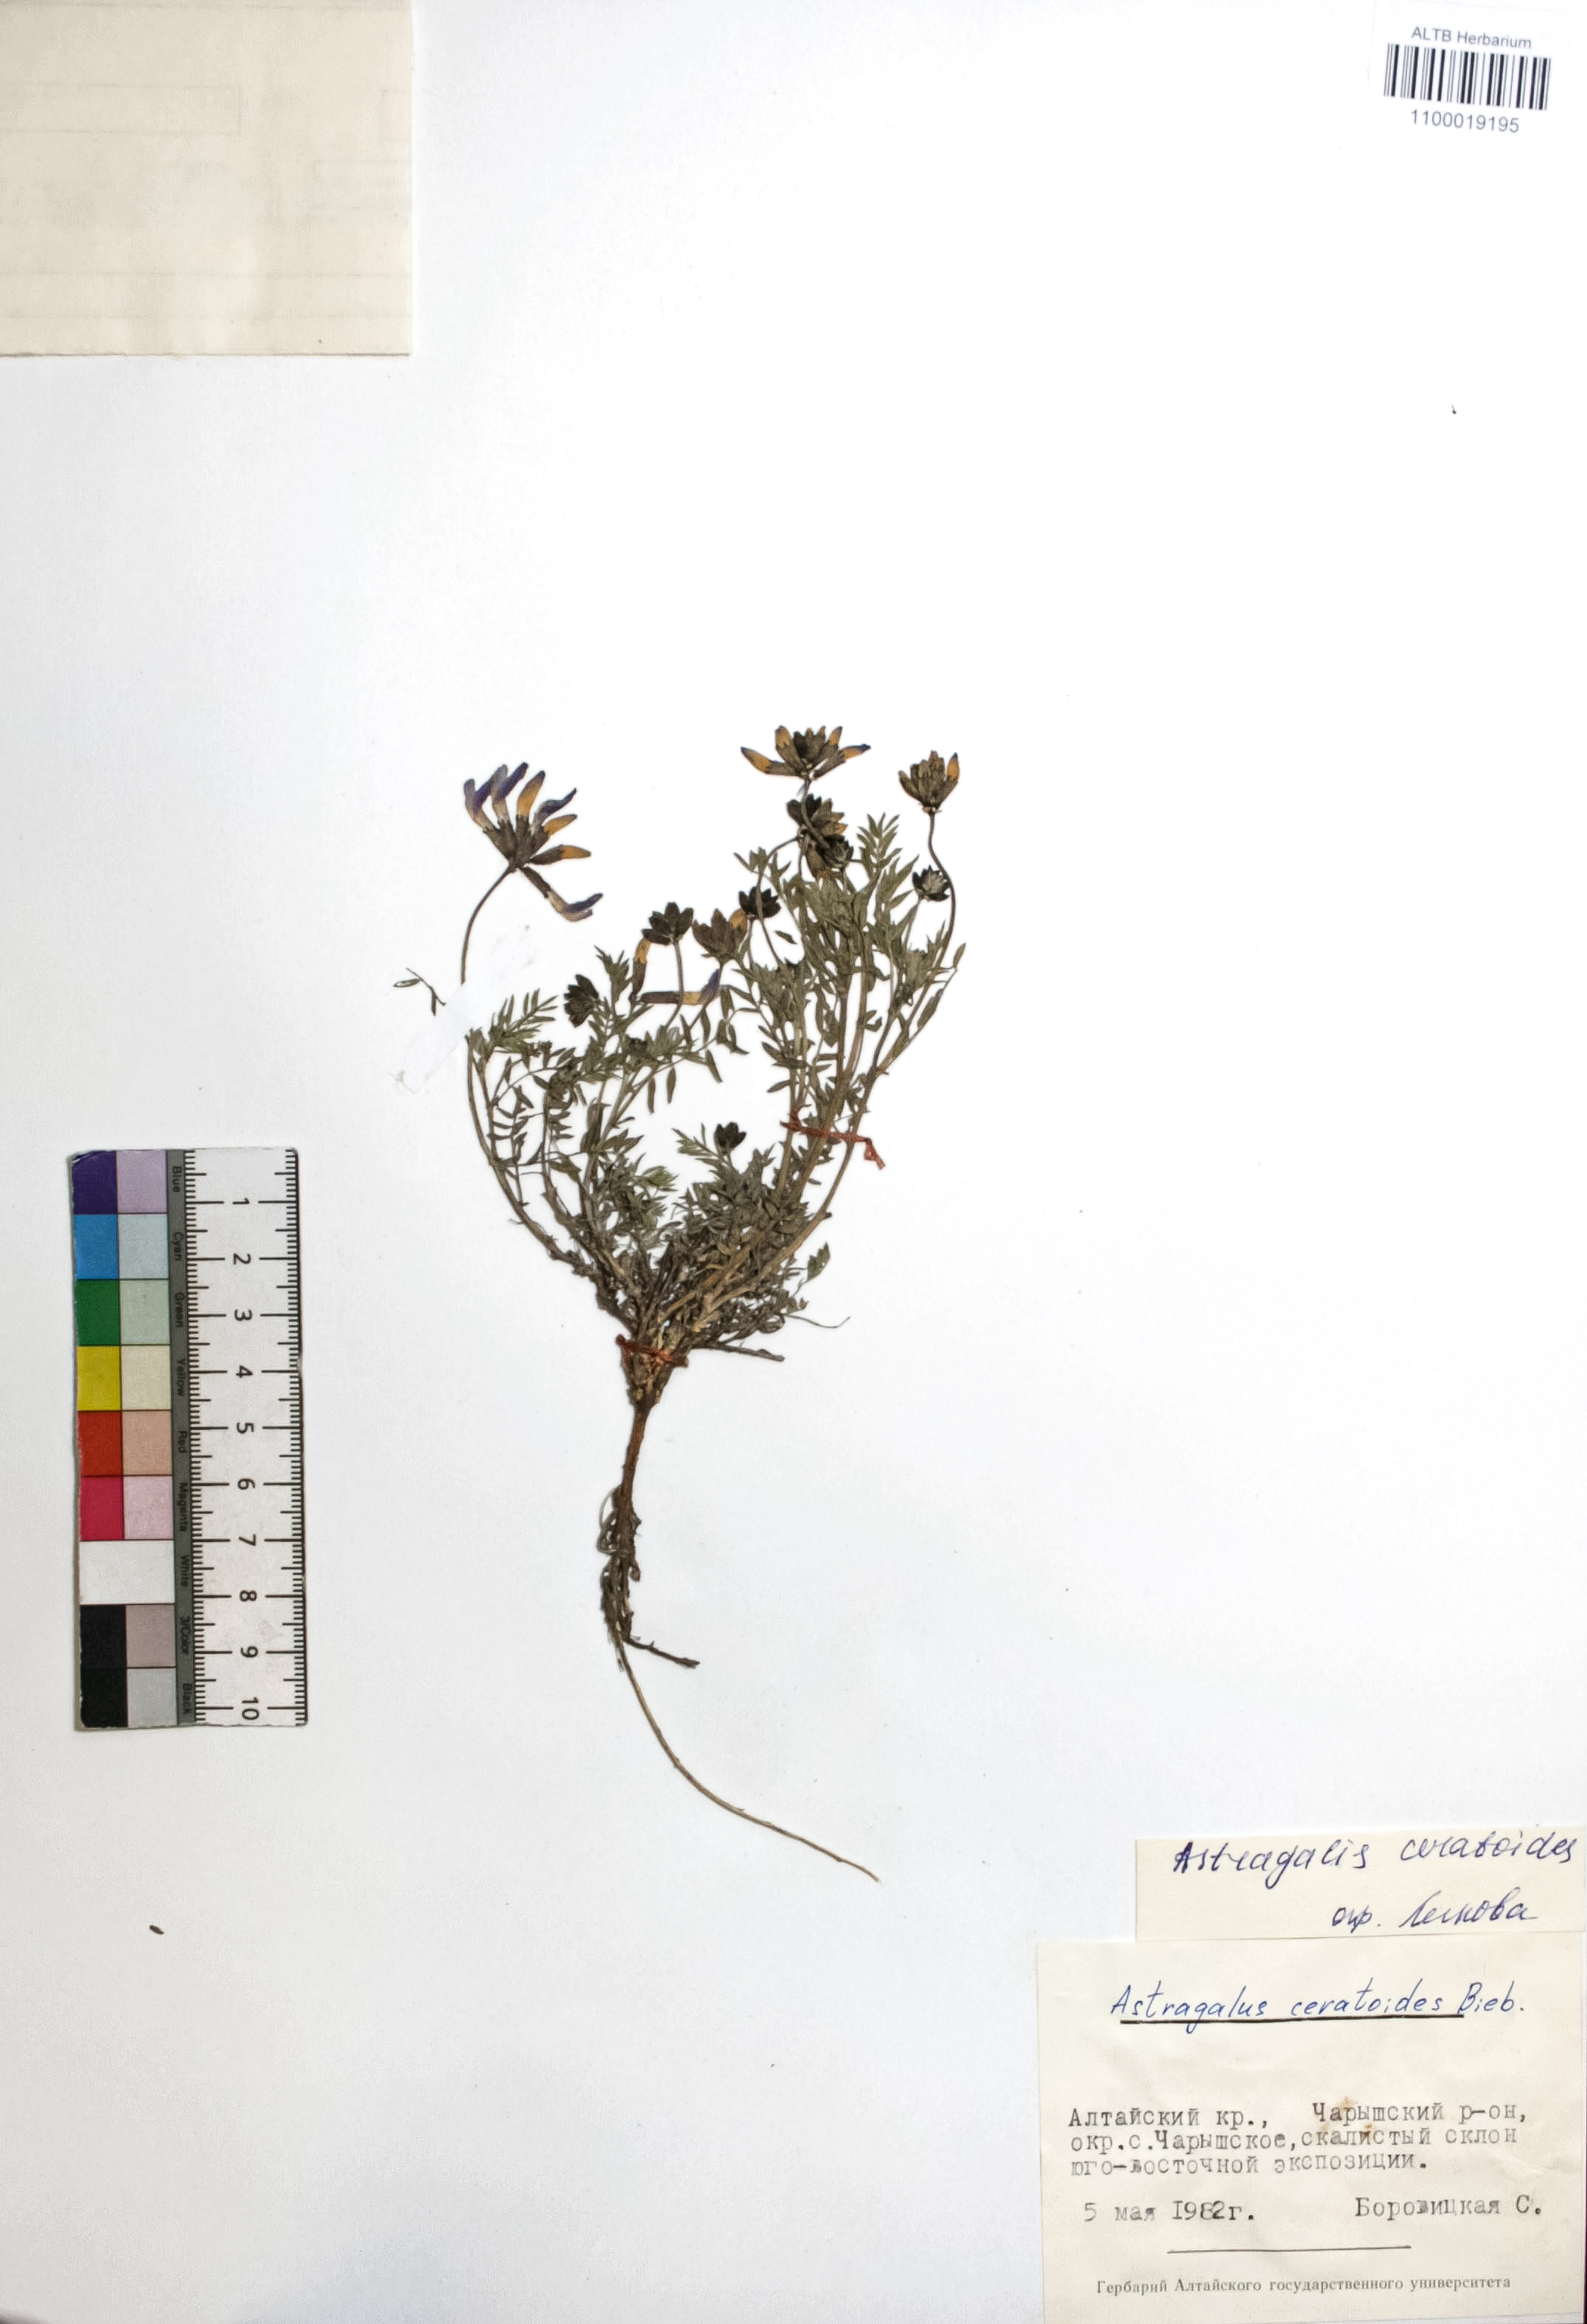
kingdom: Plantae
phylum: Tracheophyta
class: Magnoliopsida
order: Fabales
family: Fabaceae
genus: Astragalus
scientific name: Astragalus ceratoides
